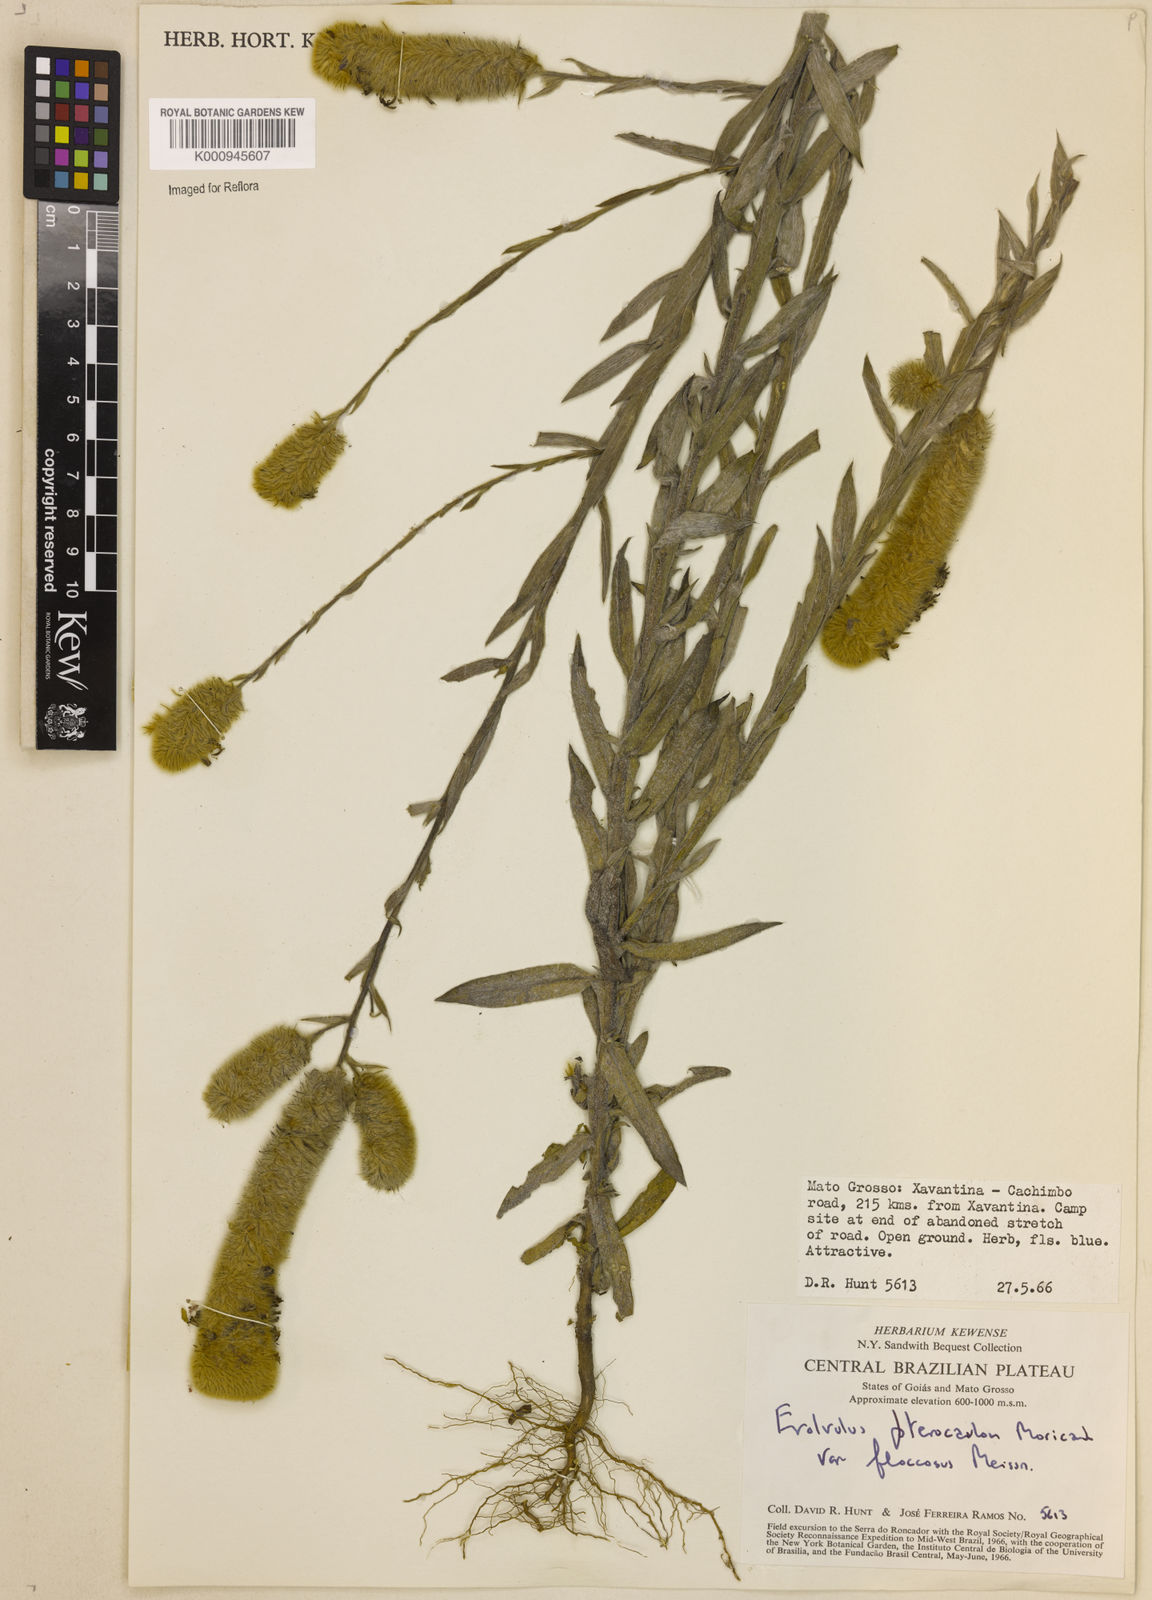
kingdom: Plantae
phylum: Tracheophyta
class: Magnoliopsida
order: Solanales
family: Convolvulaceae
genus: Evolvulus
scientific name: Evolvulus pterocaulon
